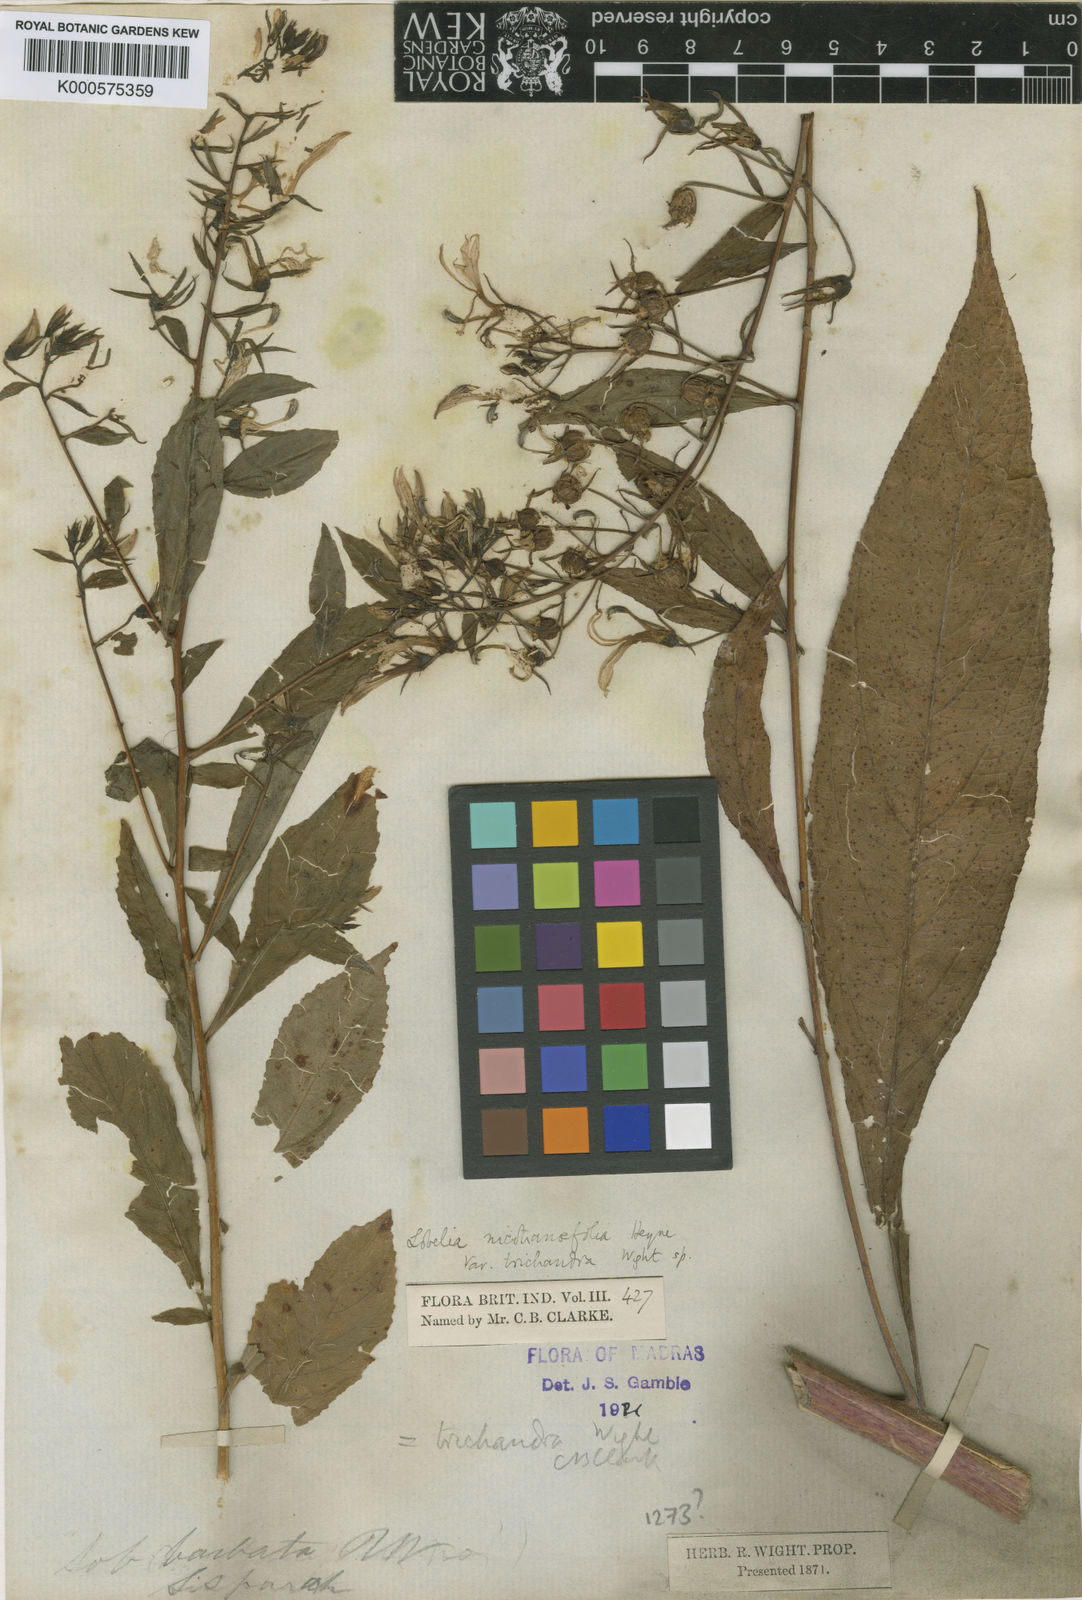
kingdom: Plantae
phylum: Tracheophyta
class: Magnoliopsida
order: Asterales
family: Campanulaceae
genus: Lobelia
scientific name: Lobelia
